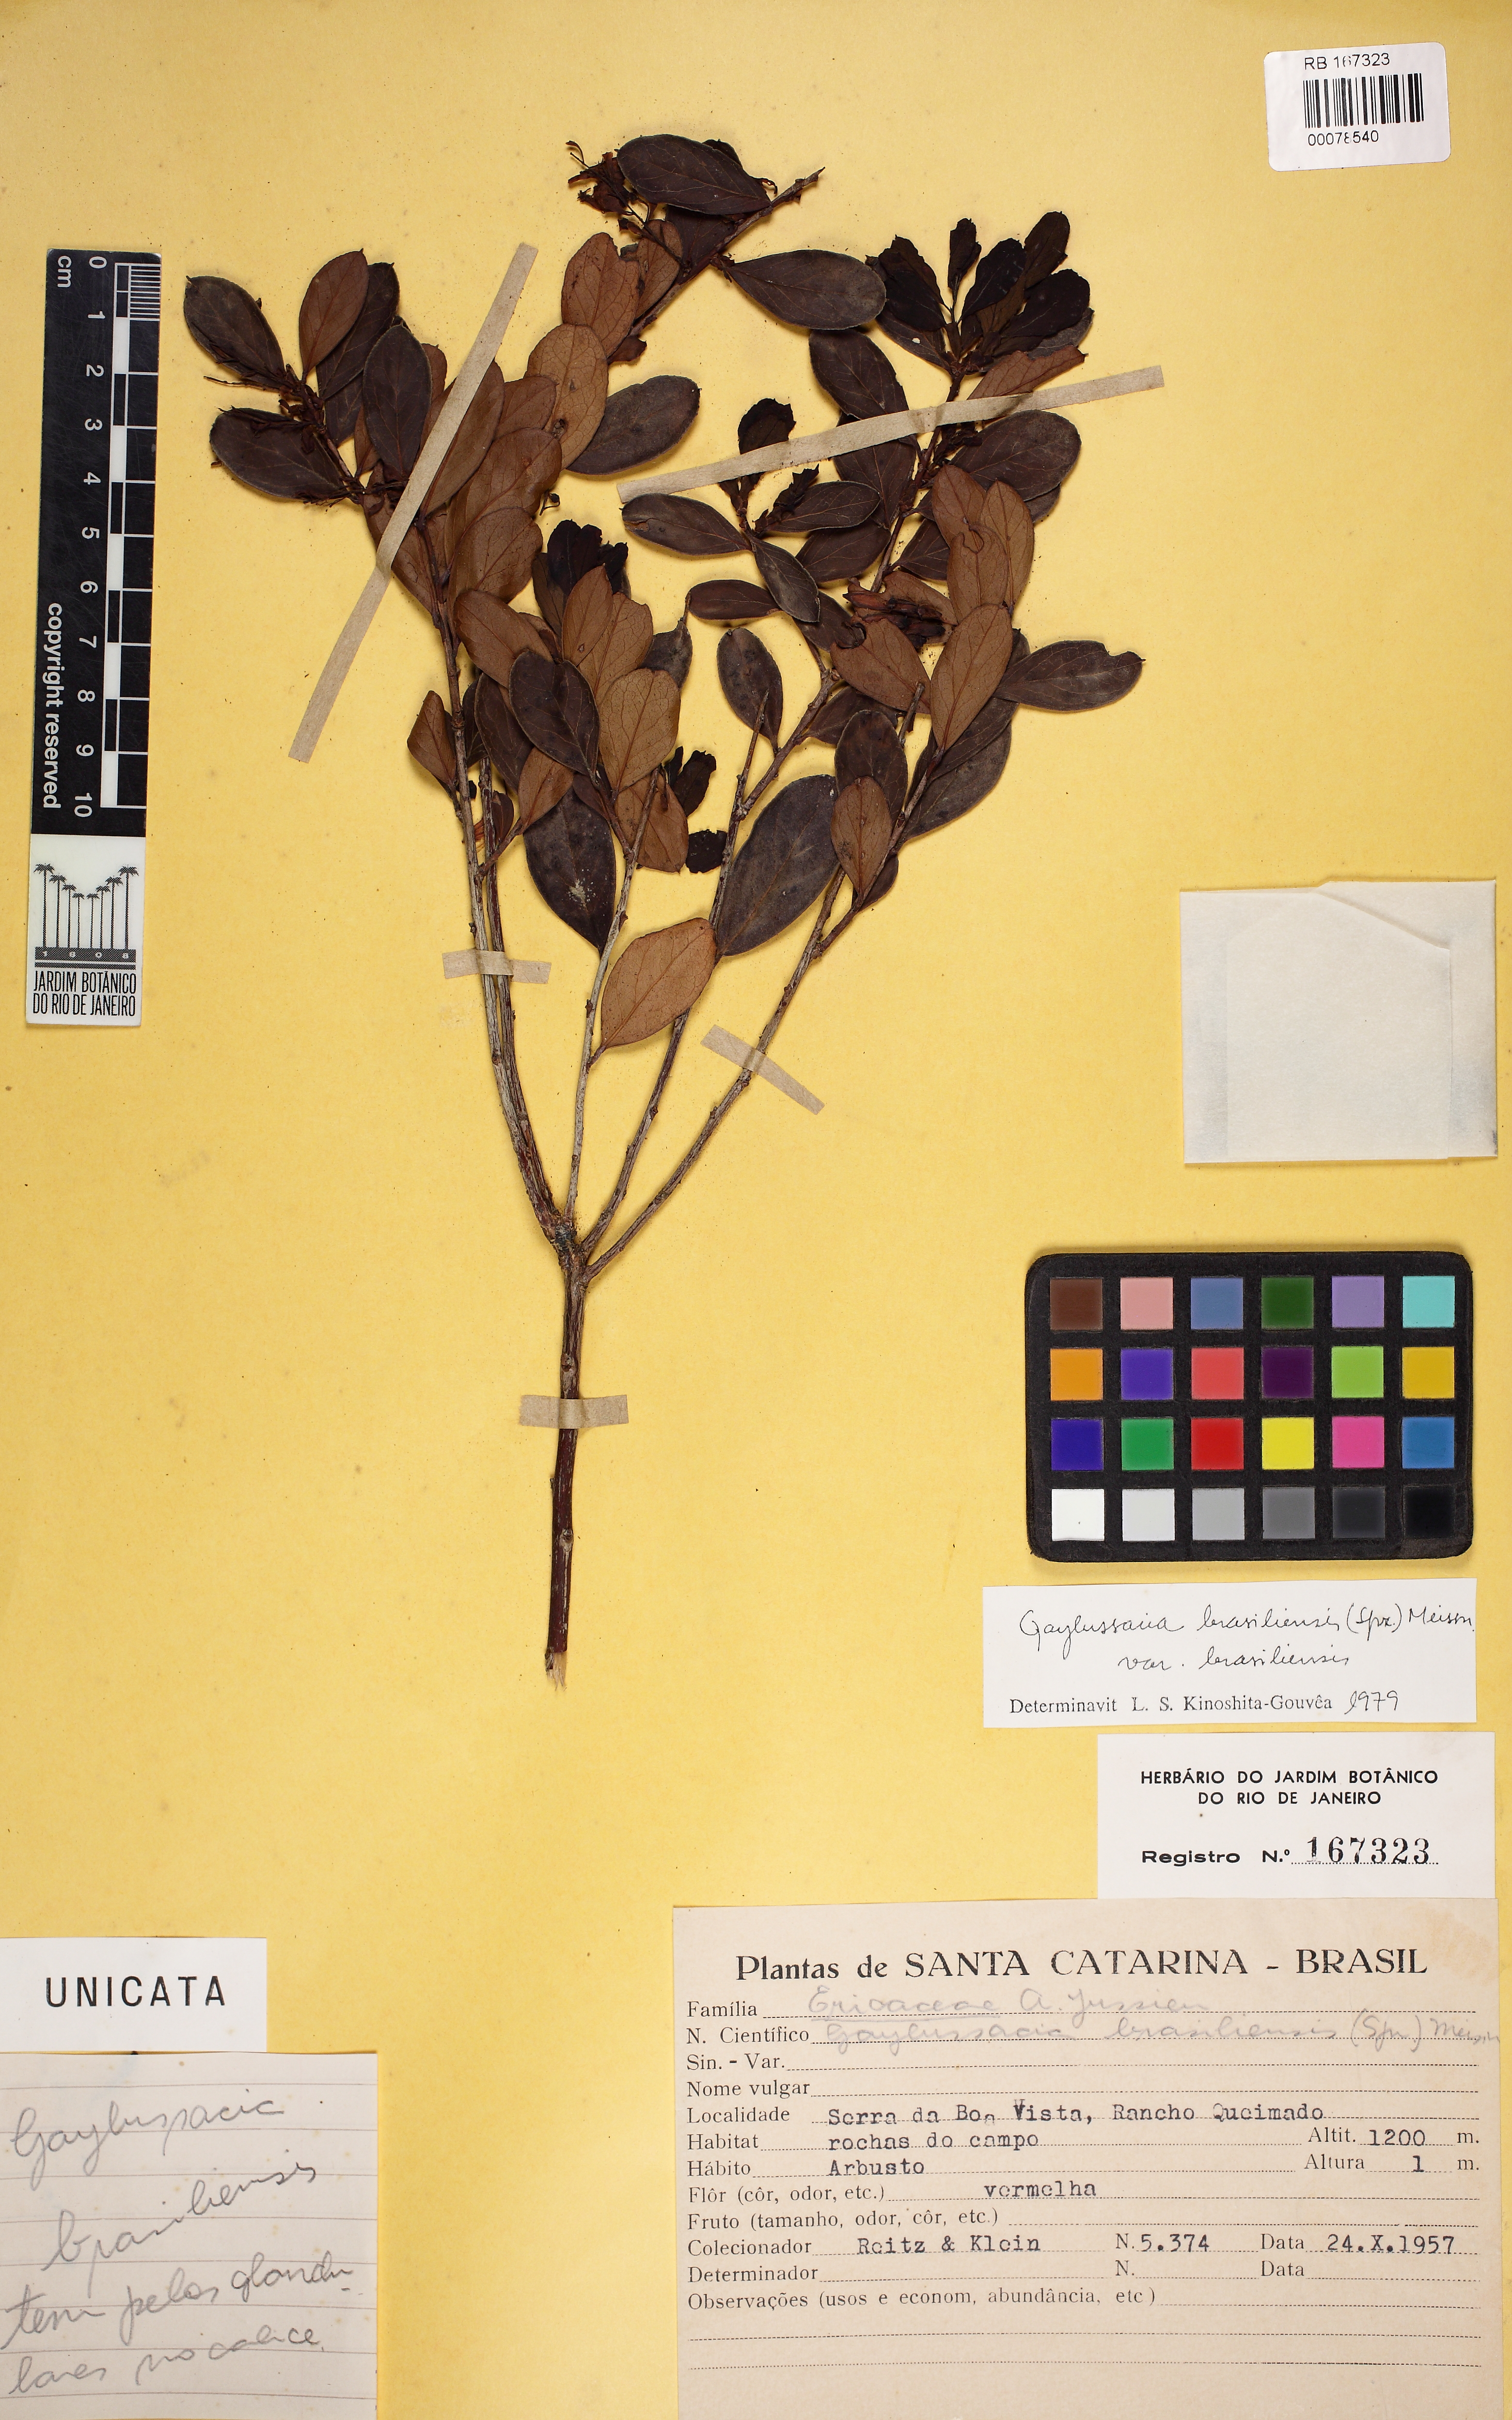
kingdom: Plantae
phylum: Tracheophyta
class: Magnoliopsida
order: Ericales
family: Ericaceae
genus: Gaylussacia
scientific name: Gaylussacia brasiliensis
